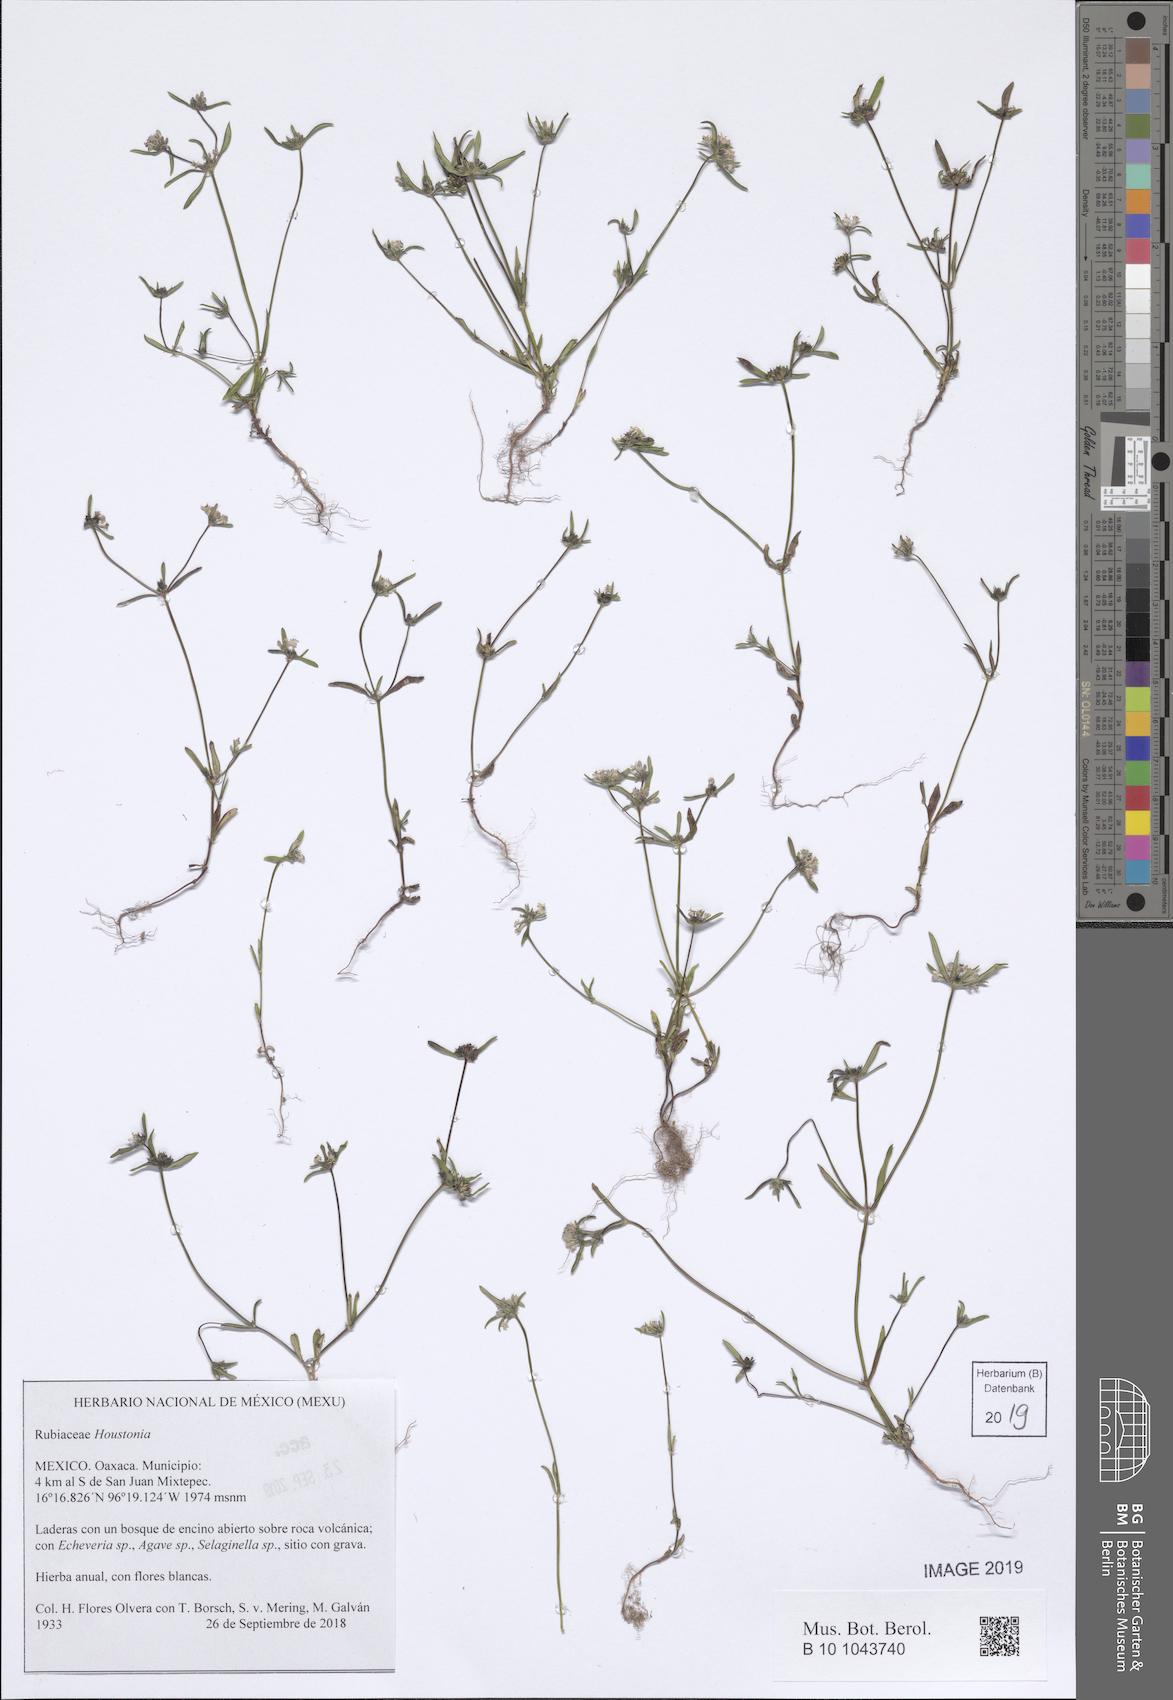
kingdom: Plantae
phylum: Tracheophyta
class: Magnoliopsida
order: Gentianales
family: Rubiaceae
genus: Houstonia
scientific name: Houstonia
